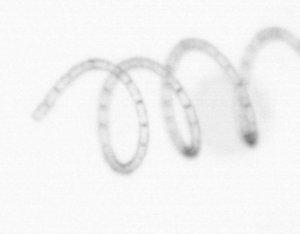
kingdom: Chromista
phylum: Ochrophyta
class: Bacillariophyceae
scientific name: Bacillariophyceae
